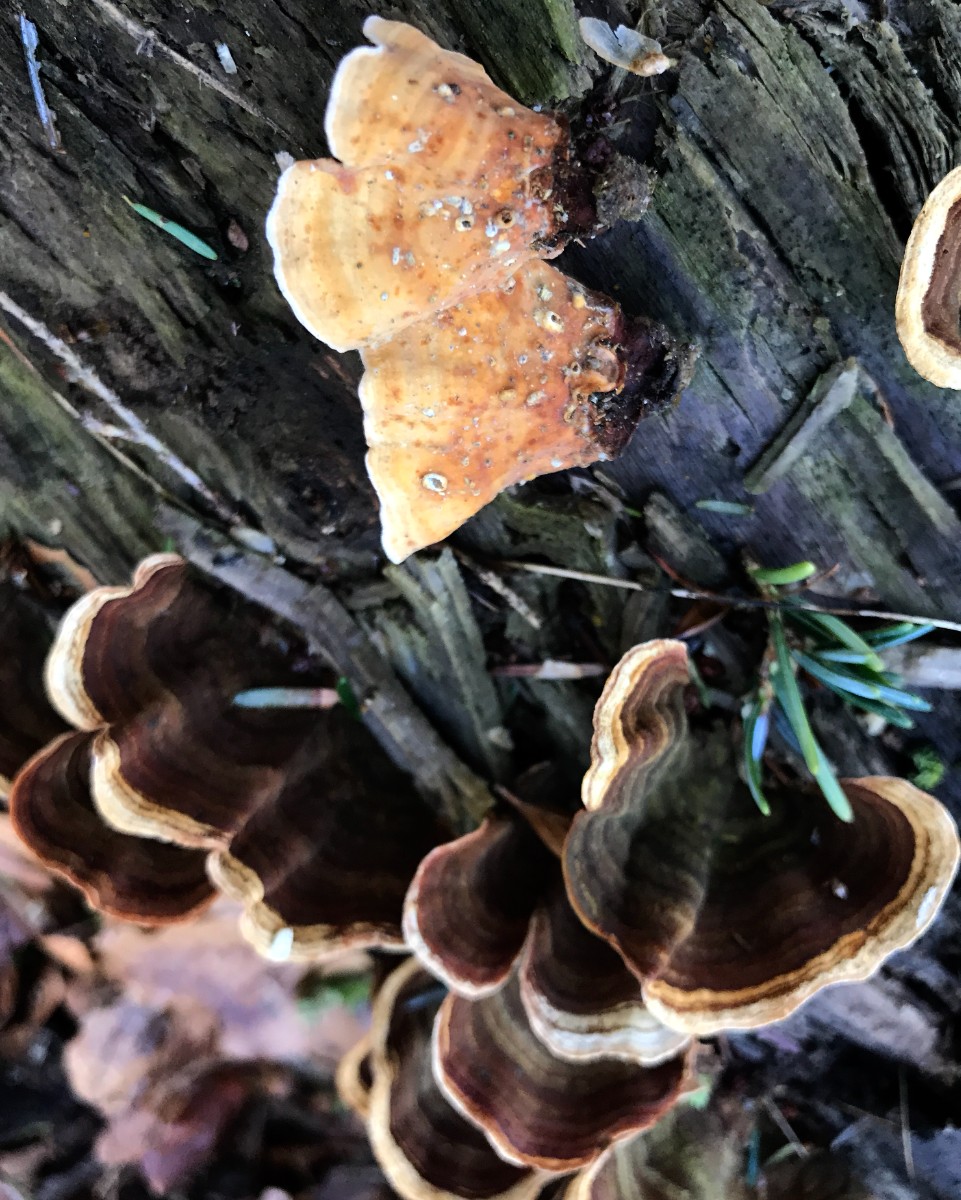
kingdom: Fungi
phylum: Basidiomycota
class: Agaricomycetes
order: Russulales
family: Stereaceae
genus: Stereum
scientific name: Stereum subtomentosum
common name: smuk lædersvamp
